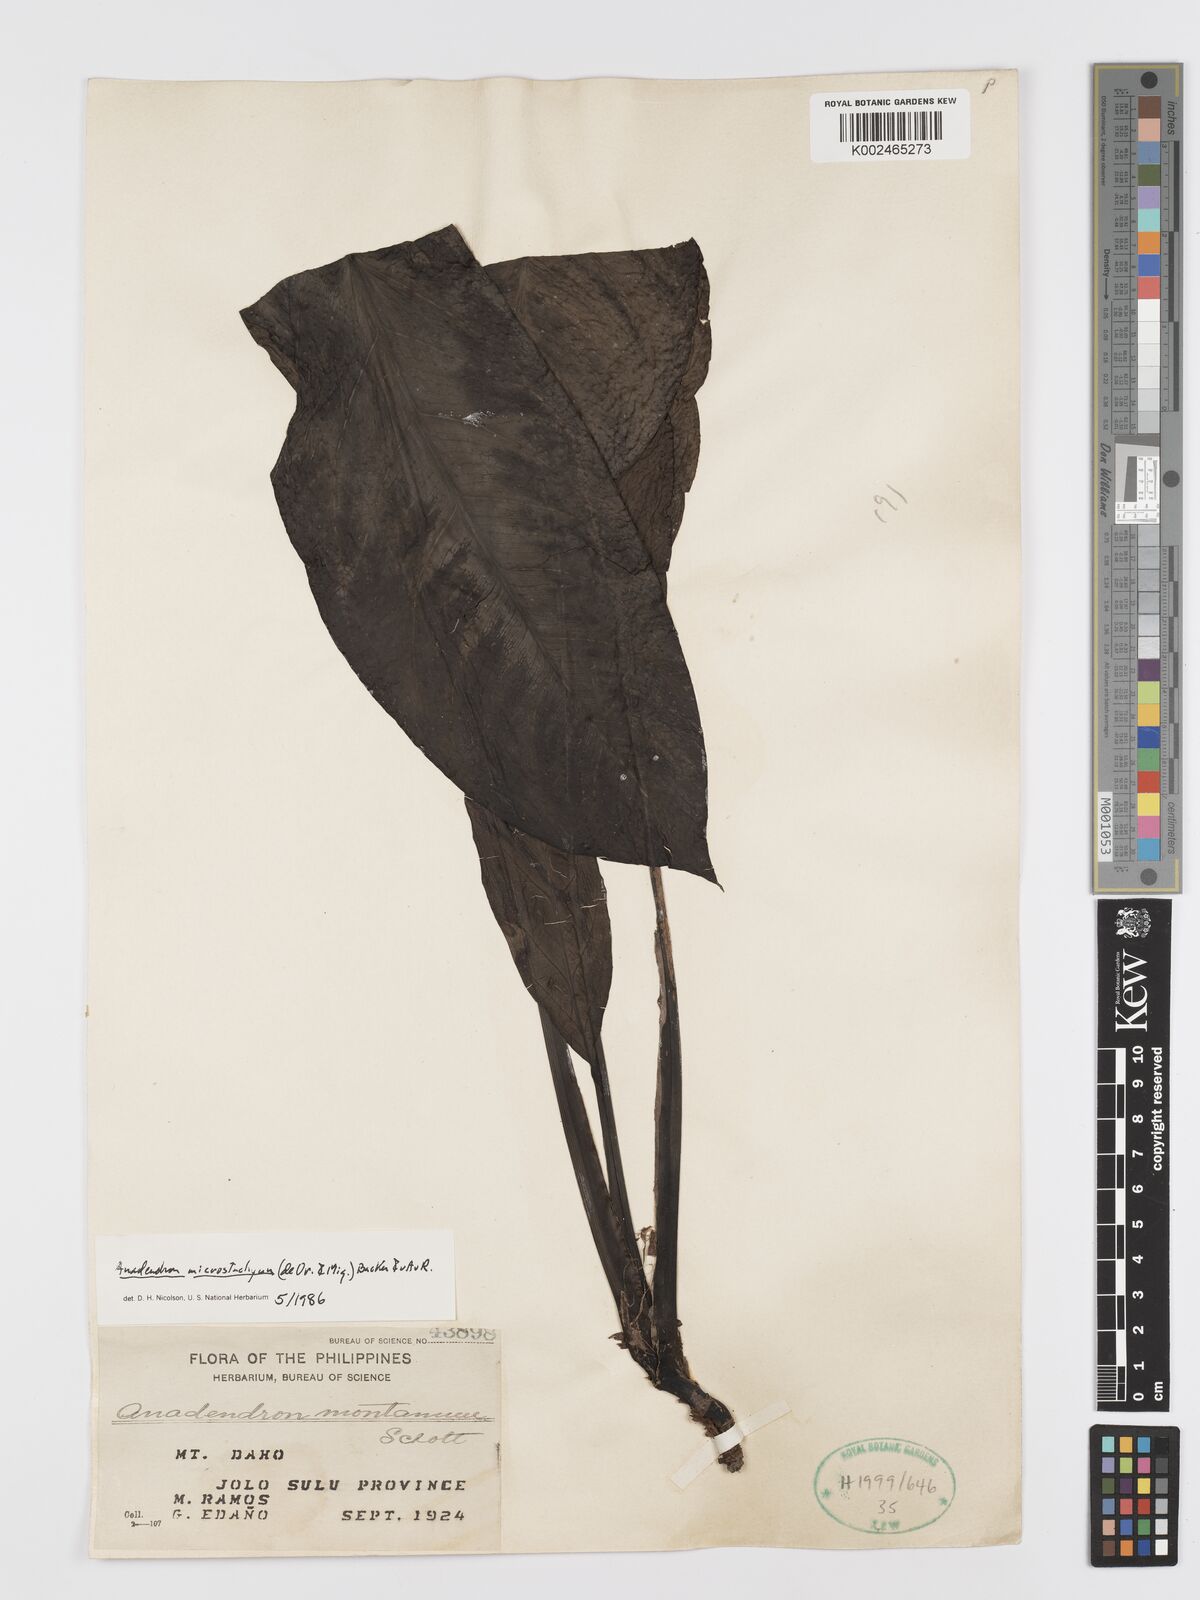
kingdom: Plantae
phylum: Tracheophyta
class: Liliopsida
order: Alismatales
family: Araceae
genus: Anadendrum
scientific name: Anadendrum microstachyum
